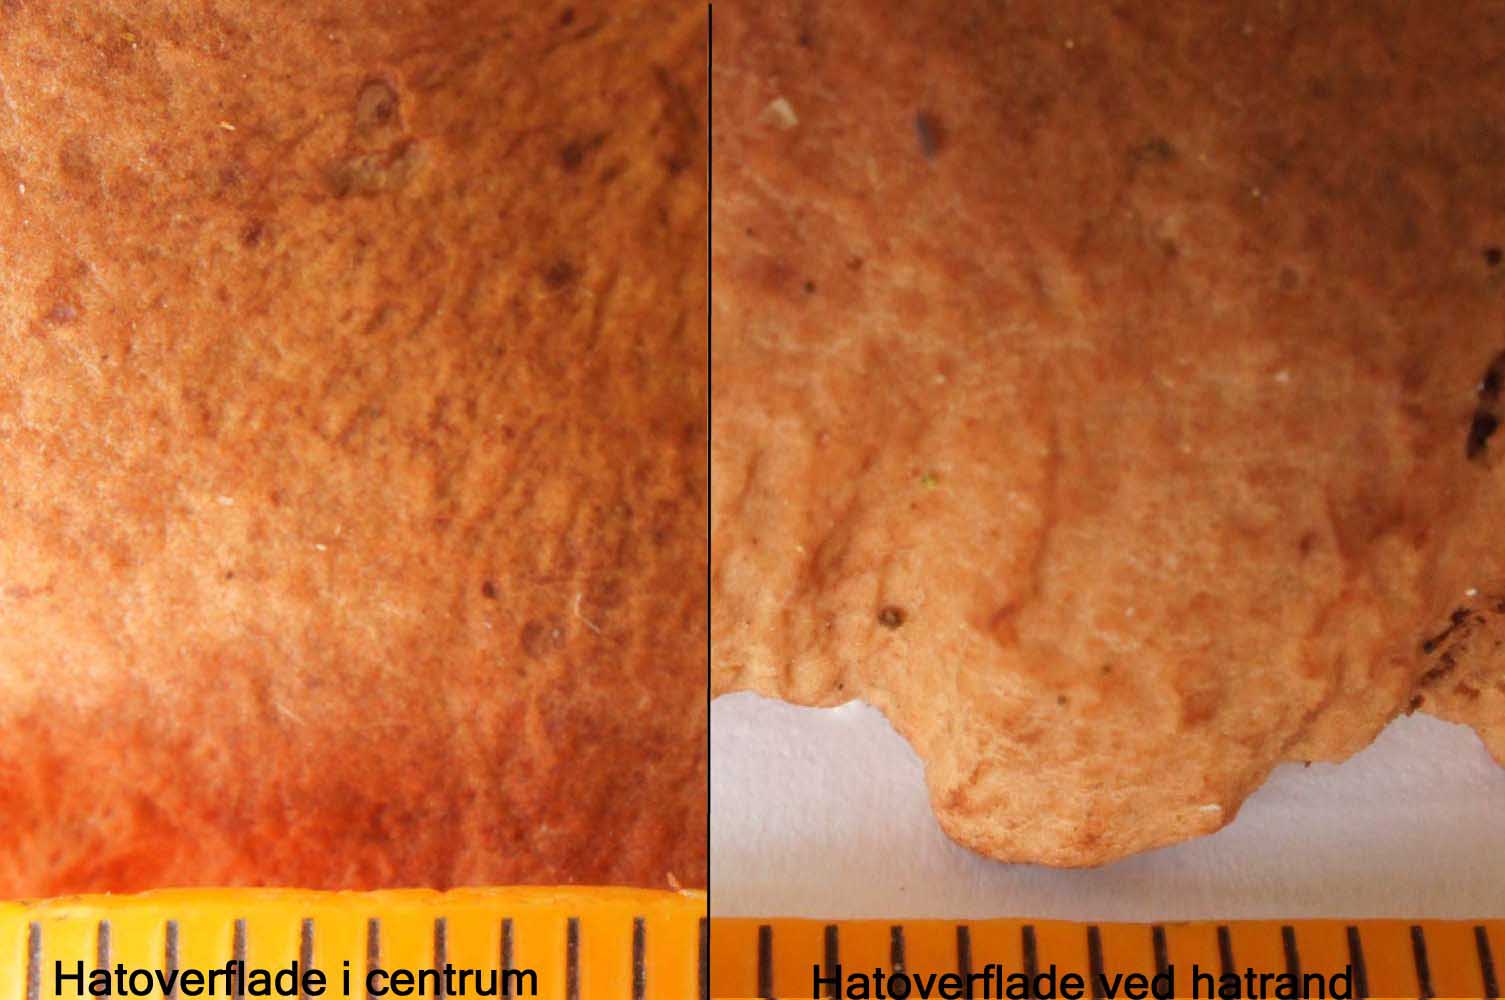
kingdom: Fungi
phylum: Basidiomycota
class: Agaricomycetes
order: Russulales
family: Russulaceae
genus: Lactarius
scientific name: Lactarius helvus
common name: mose-mælkehat
